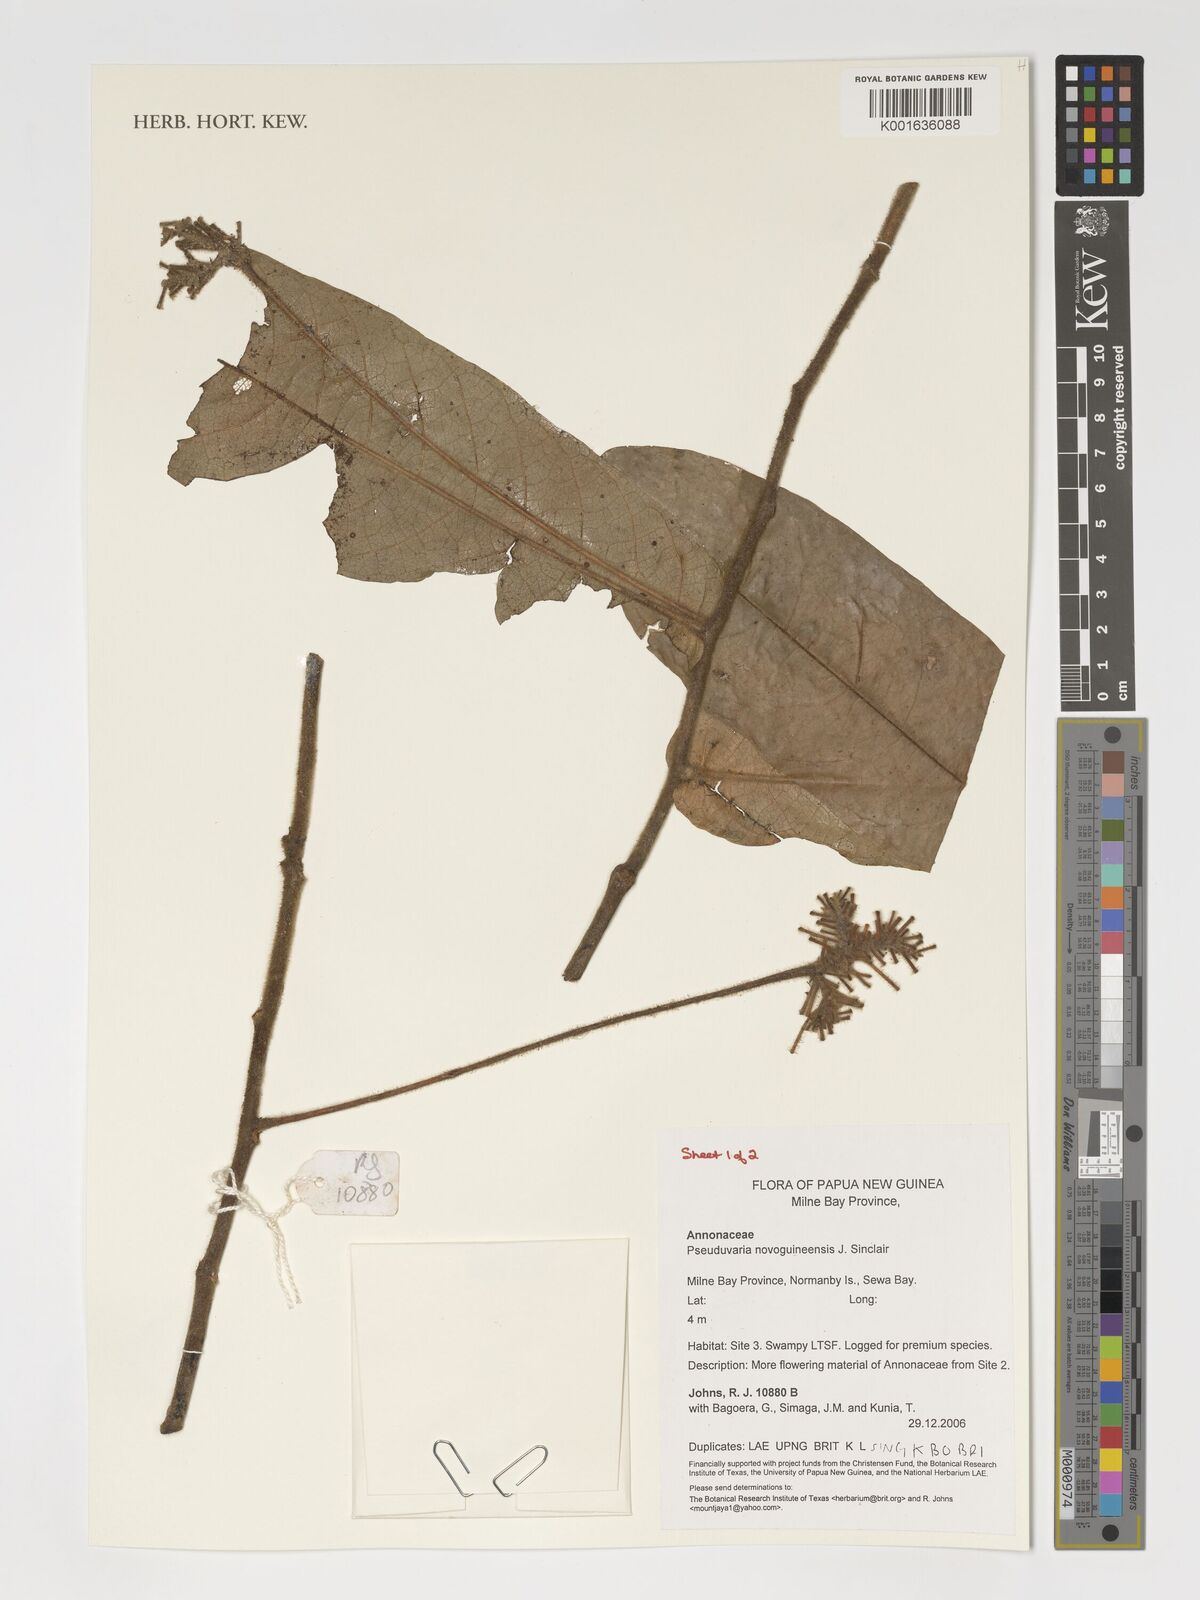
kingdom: Plantae
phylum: Tracheophyta
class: Magnoliopsida
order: Magnoliales
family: Annonaceae
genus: Pseuduvaria
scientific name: Pseuduvaria nova-guineensis
